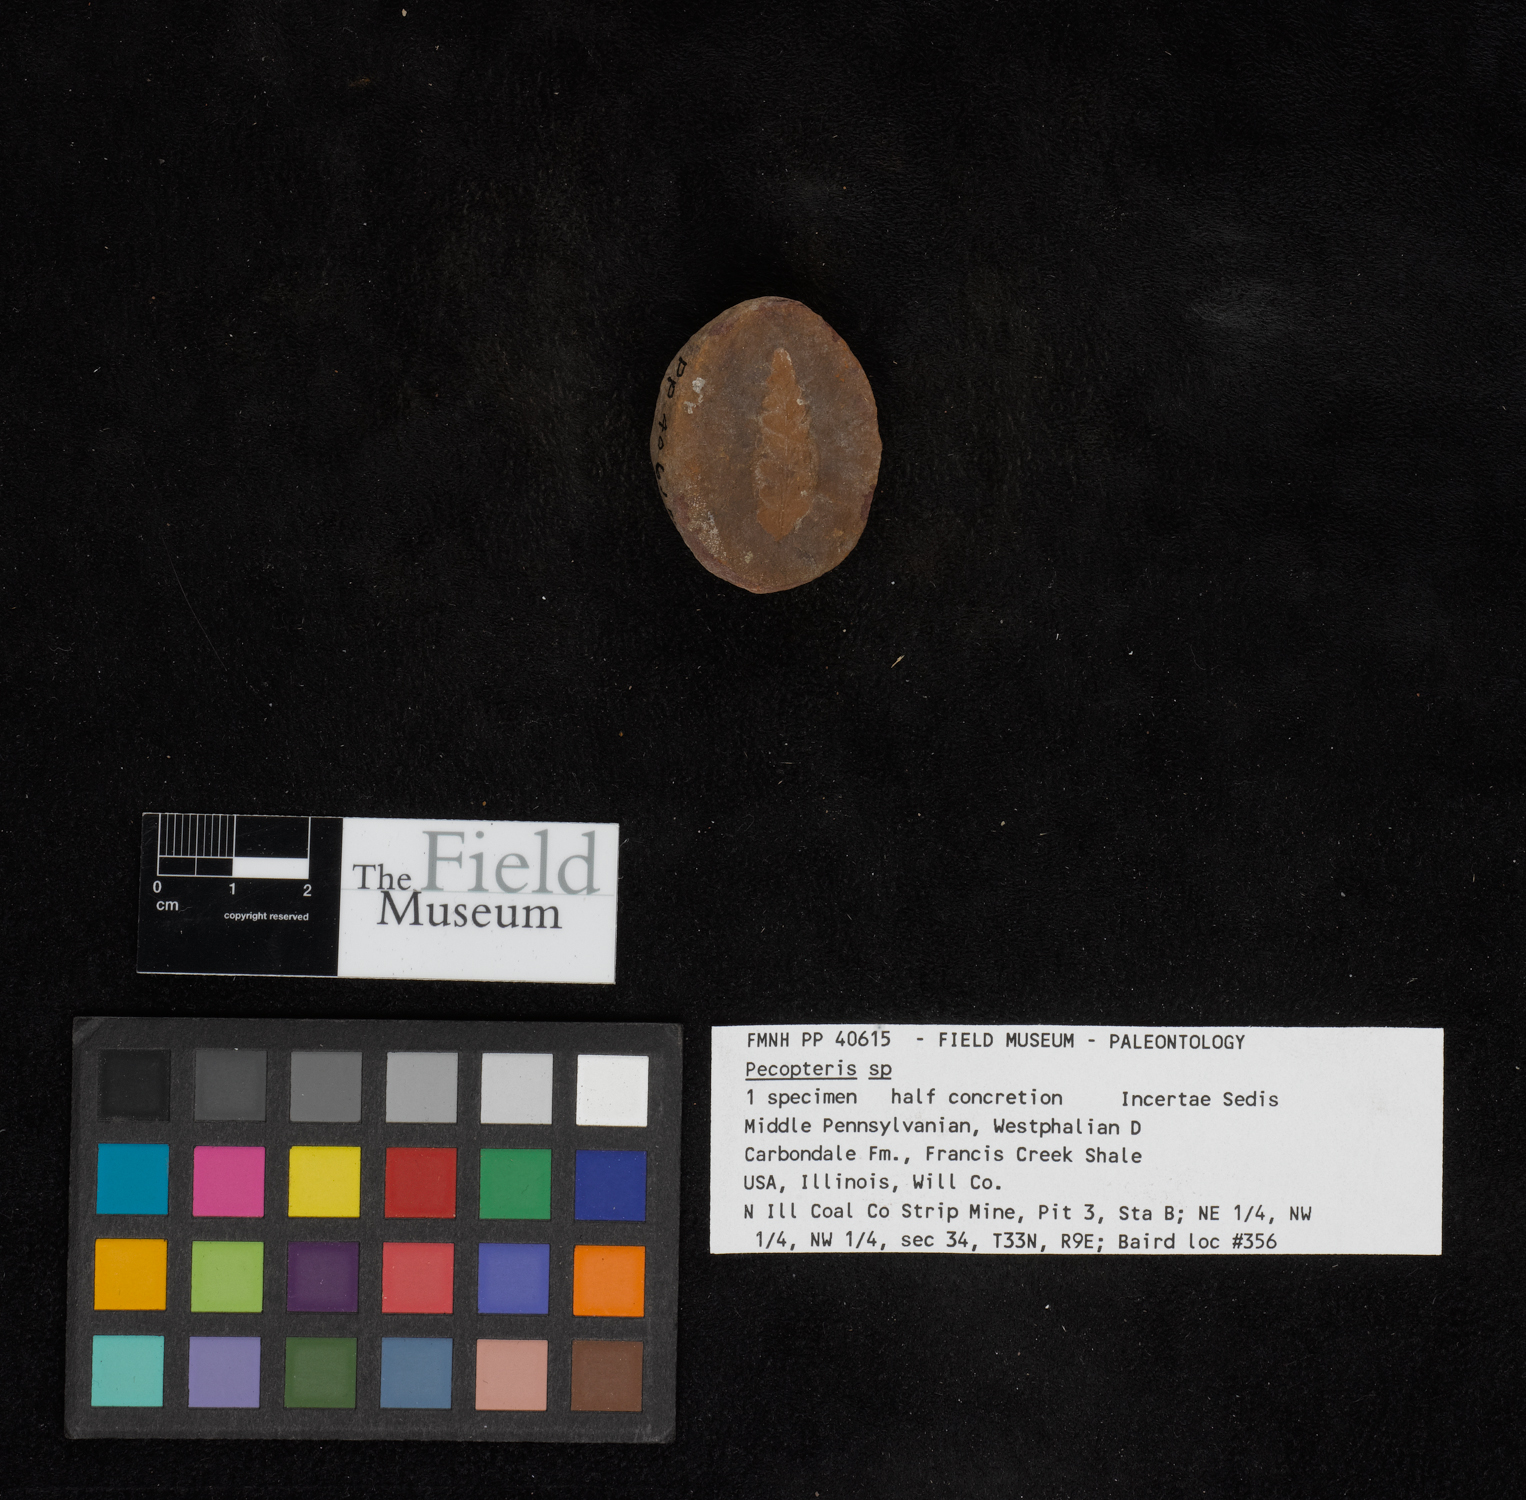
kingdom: Plantae
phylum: Tracheophyta
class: Polypodiopsida
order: Marattiales
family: Asterothecaceae
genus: Pecopteris
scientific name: Pecopteris
